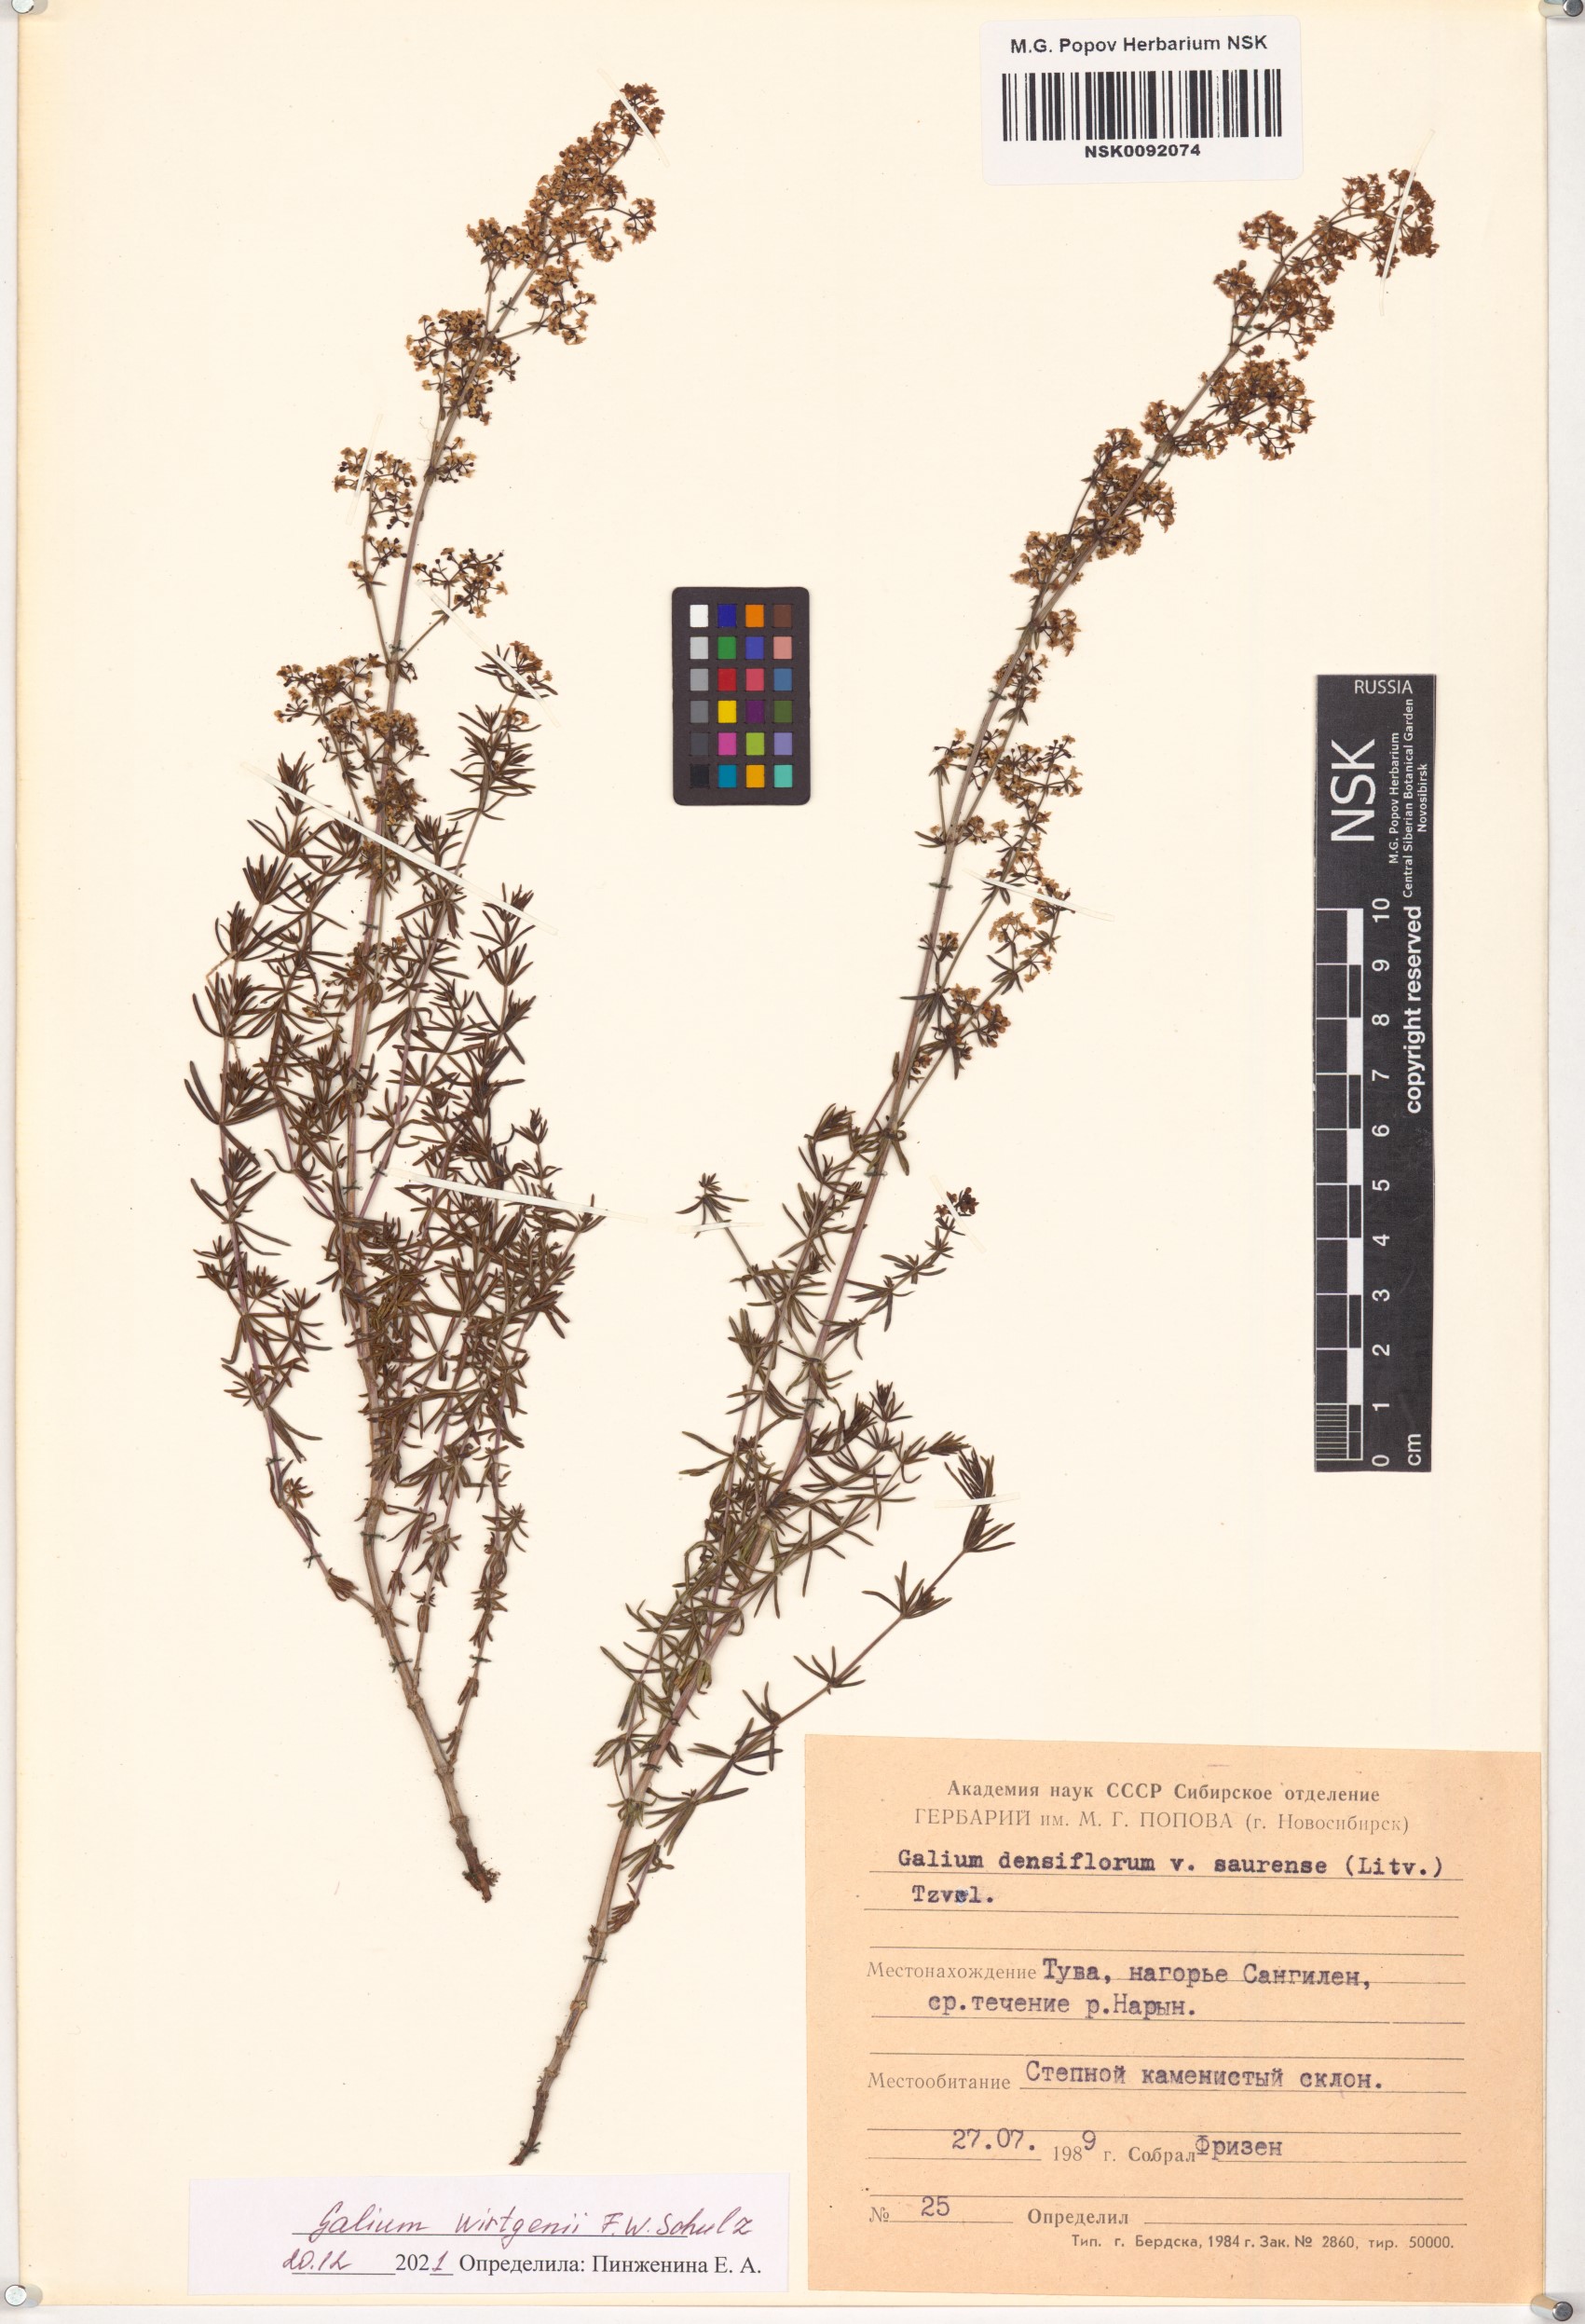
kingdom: Plantae
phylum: Tracheophyta
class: Magnoliopsida
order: Gentianales
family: Rubiaceae
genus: Galium
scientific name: Galium verum
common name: Lady's bedstraw
